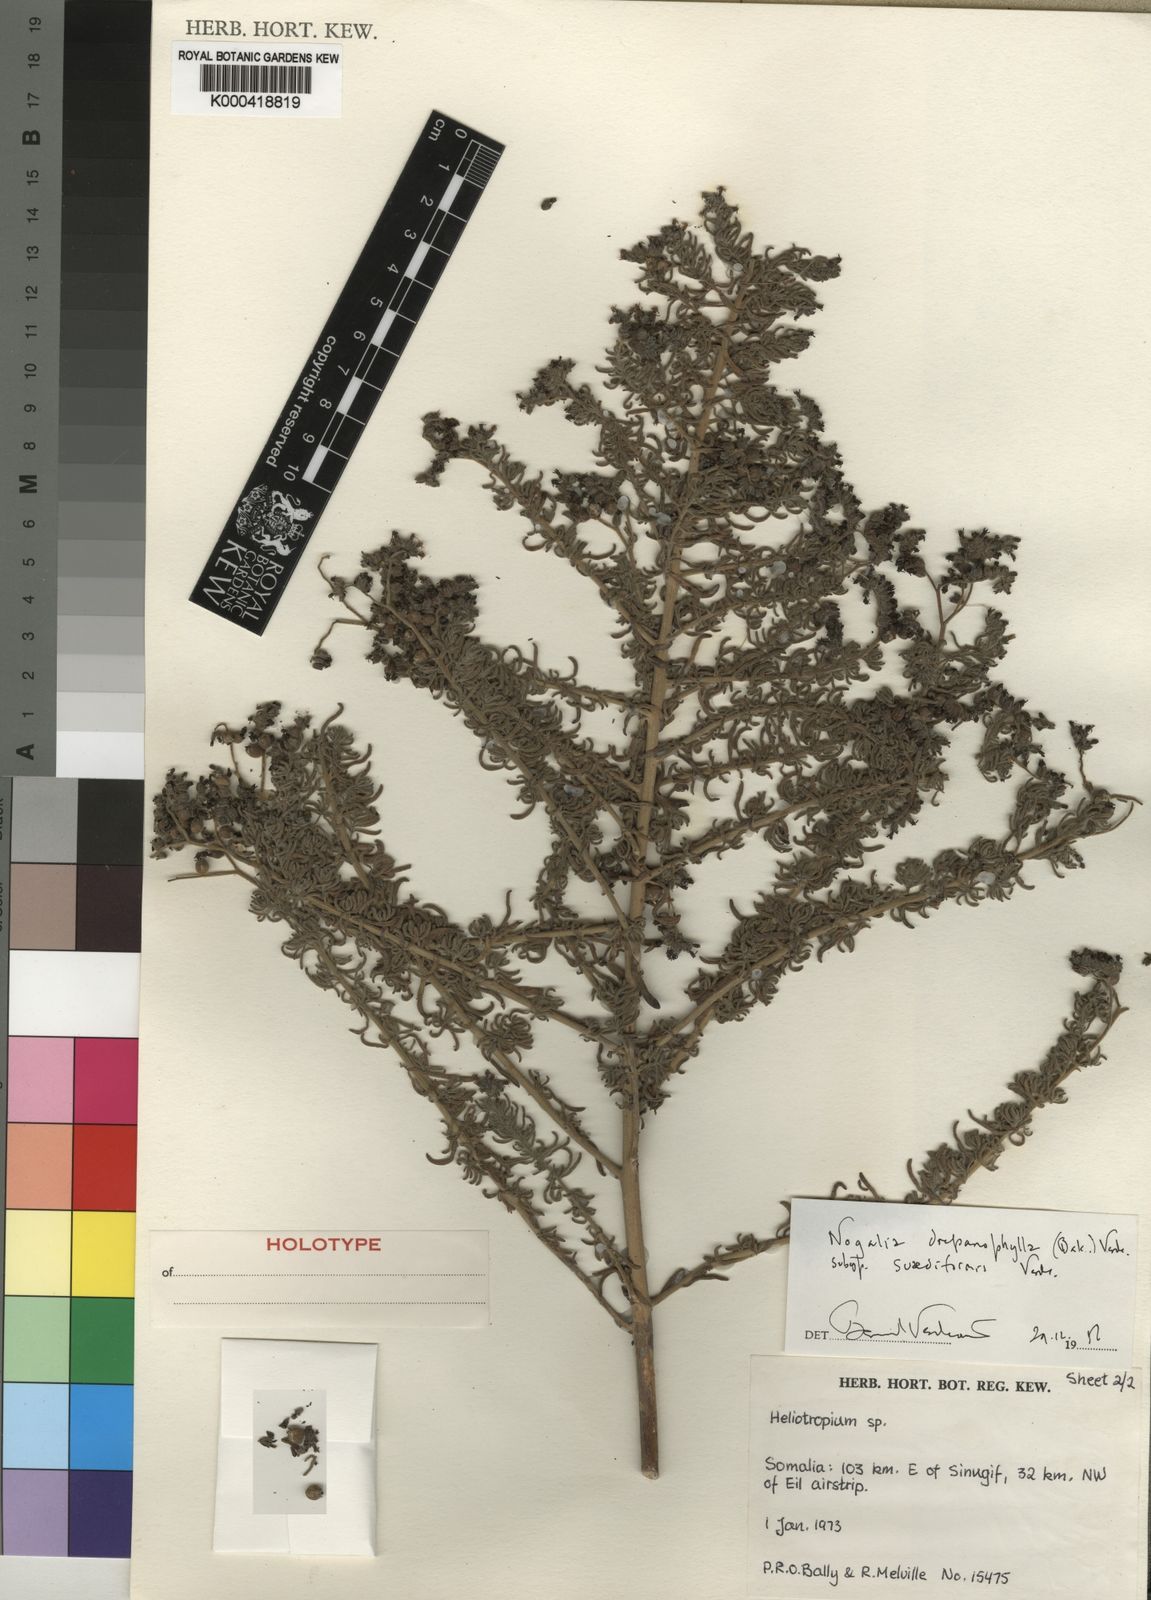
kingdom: Plantae
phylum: Tracheophyta
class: Magnoliopsida
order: Boraginales
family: Heliotropiaceae
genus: Heliotropium
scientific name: Heliotropium drepanophyllum
